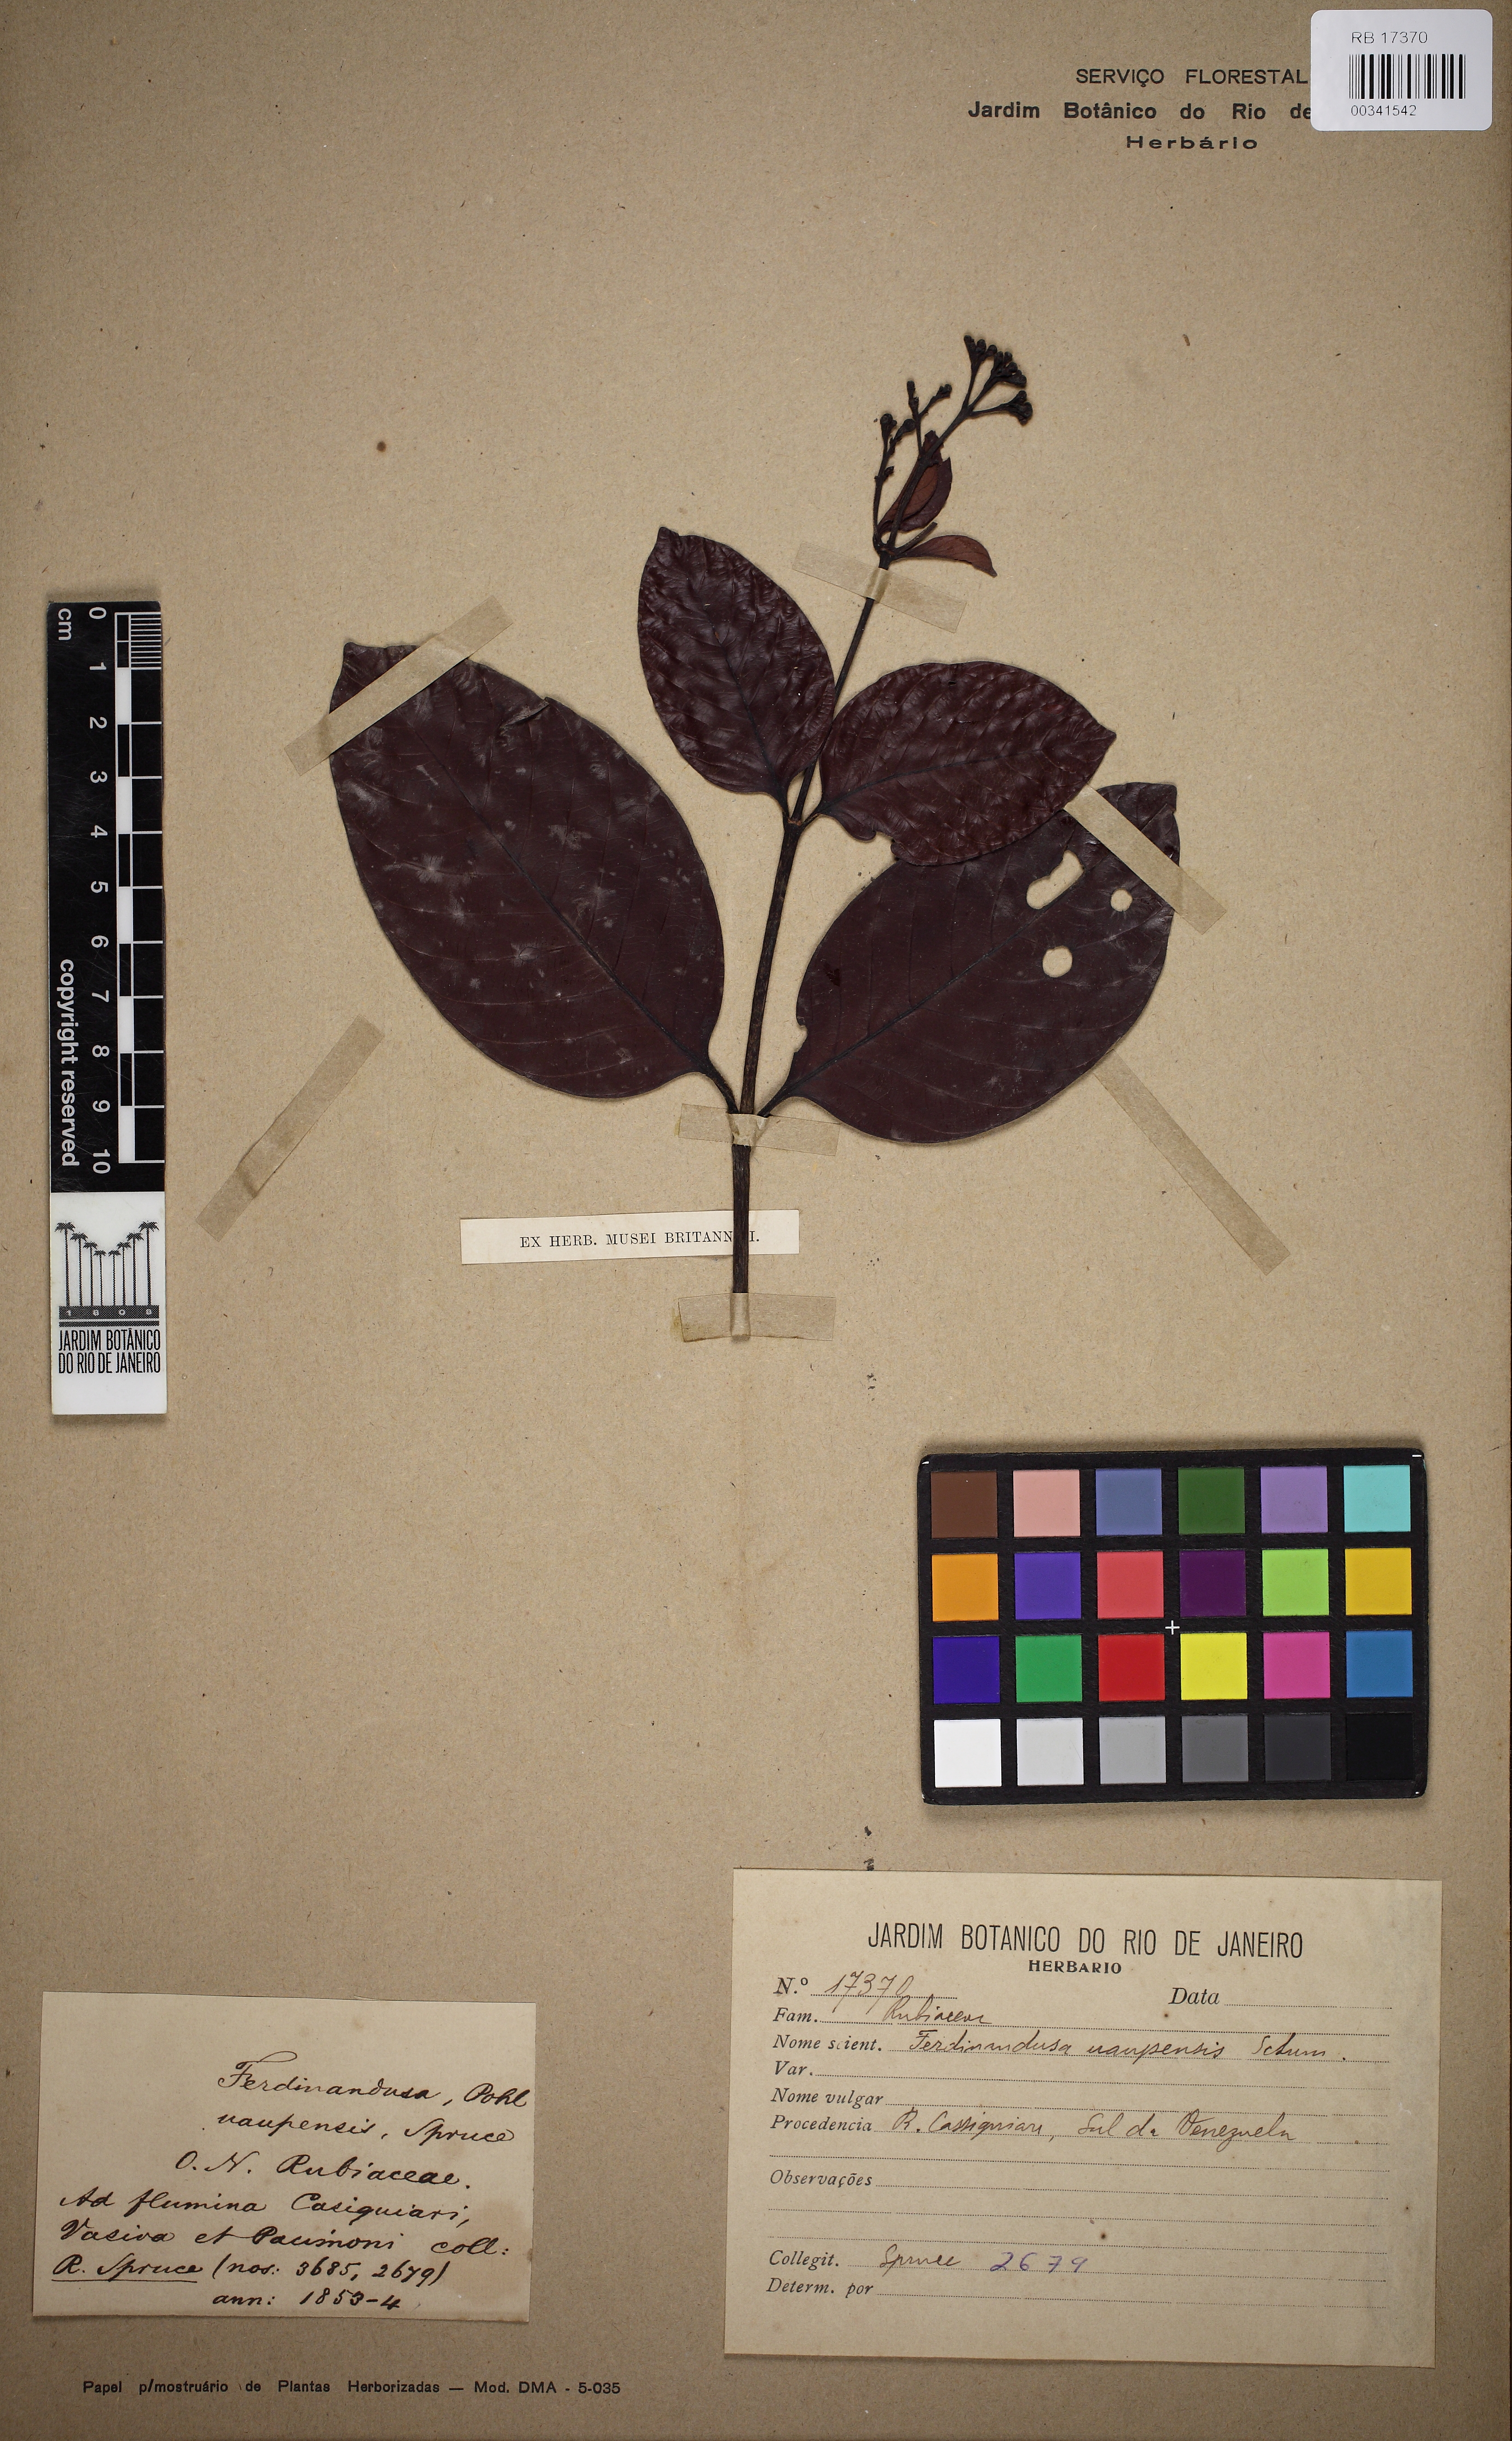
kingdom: Plantae
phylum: Tracheophyta
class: Magnoliopsida
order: Gentianales
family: Rubiaceae
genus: Ferdinandusa
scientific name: Ferdinandusa uaupensis
